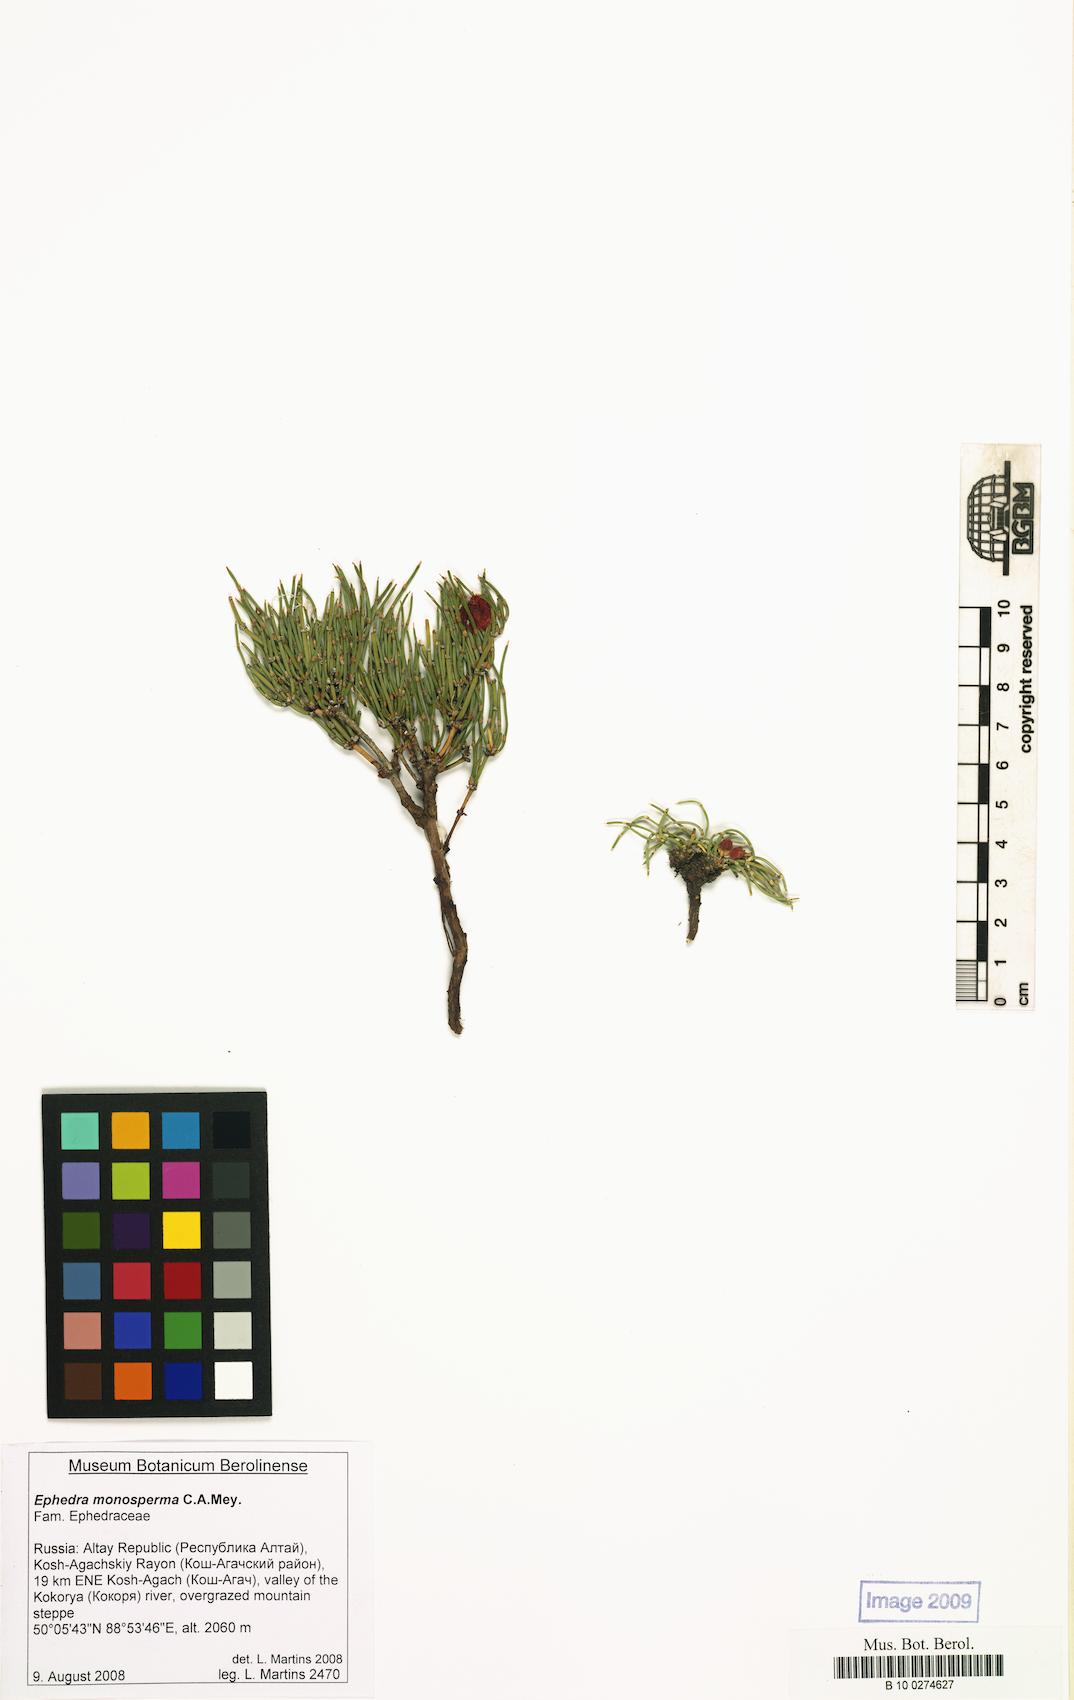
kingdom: Plantae
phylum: Tracheophyta
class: Gnetopsida
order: Ephedrales
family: Ephedraceae
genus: Ephedra
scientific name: Ephedra monosperma
